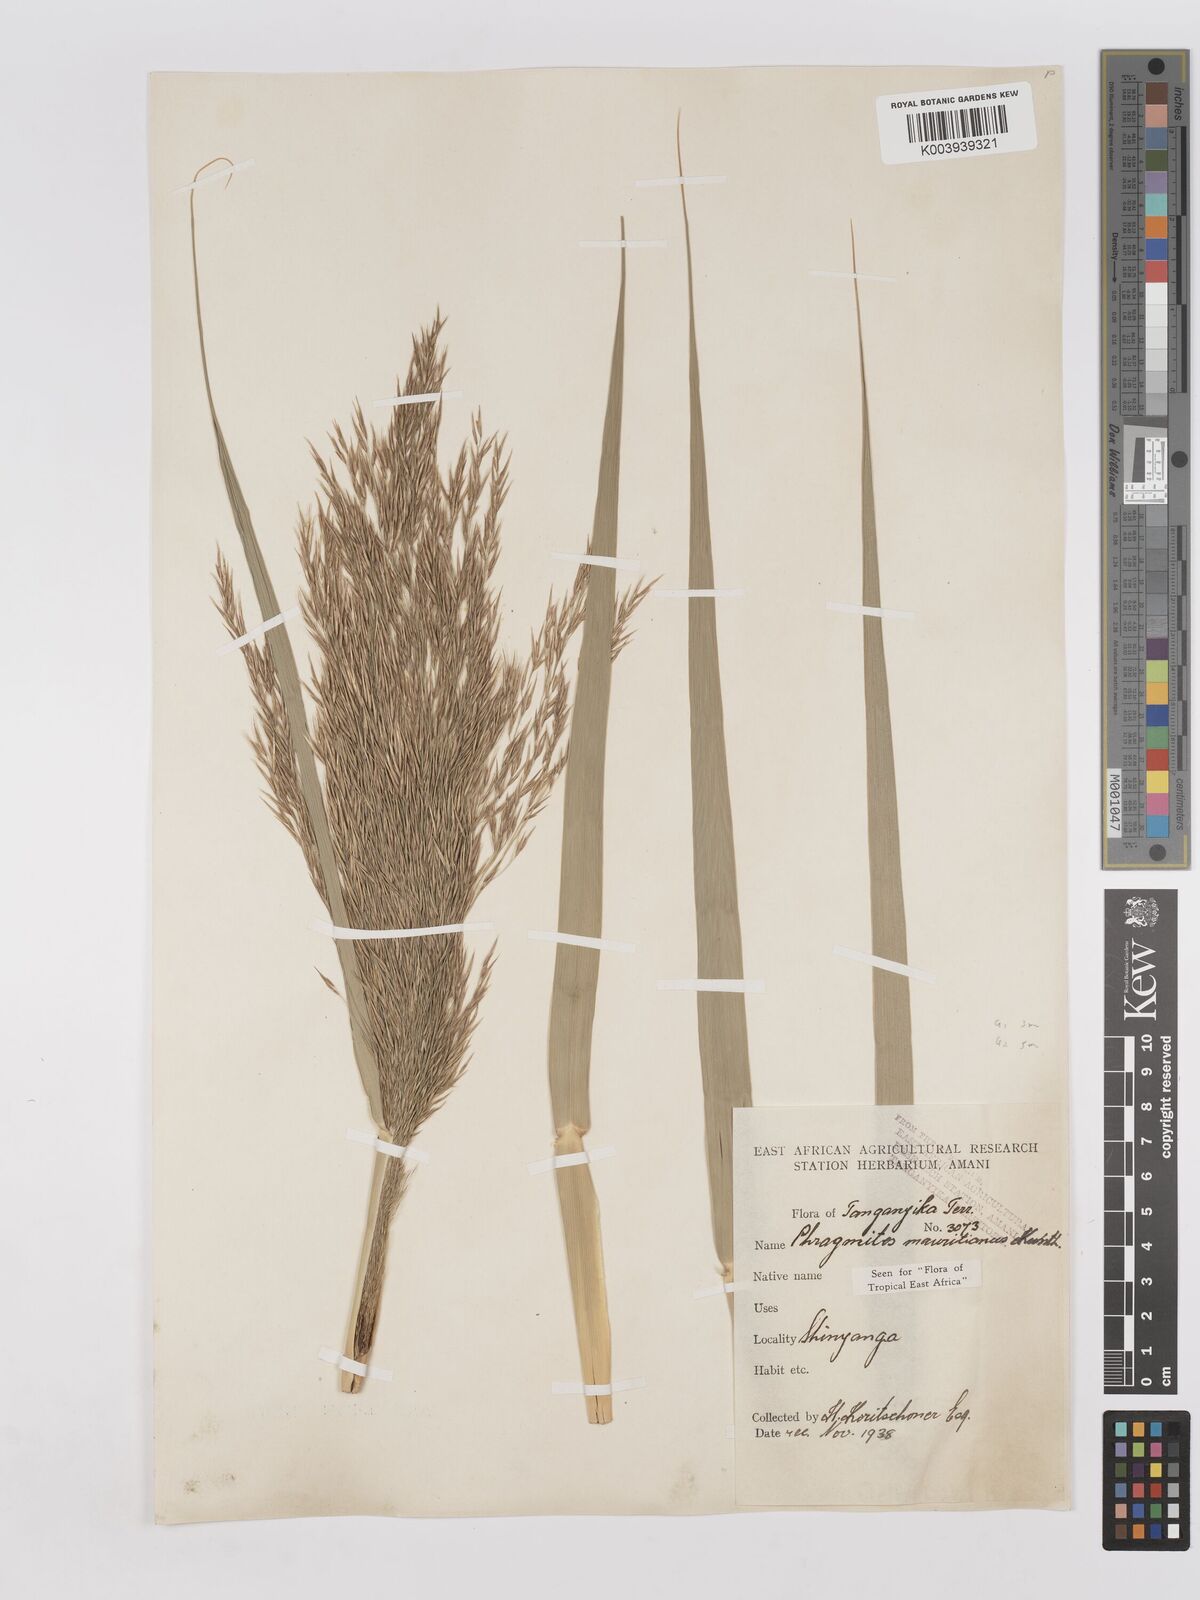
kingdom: Plantae
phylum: Tracheophyta
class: Liliopsida
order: Poales
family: Poaceae
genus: Phragmites
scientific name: Phragmites mauritianus
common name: Reed grass
